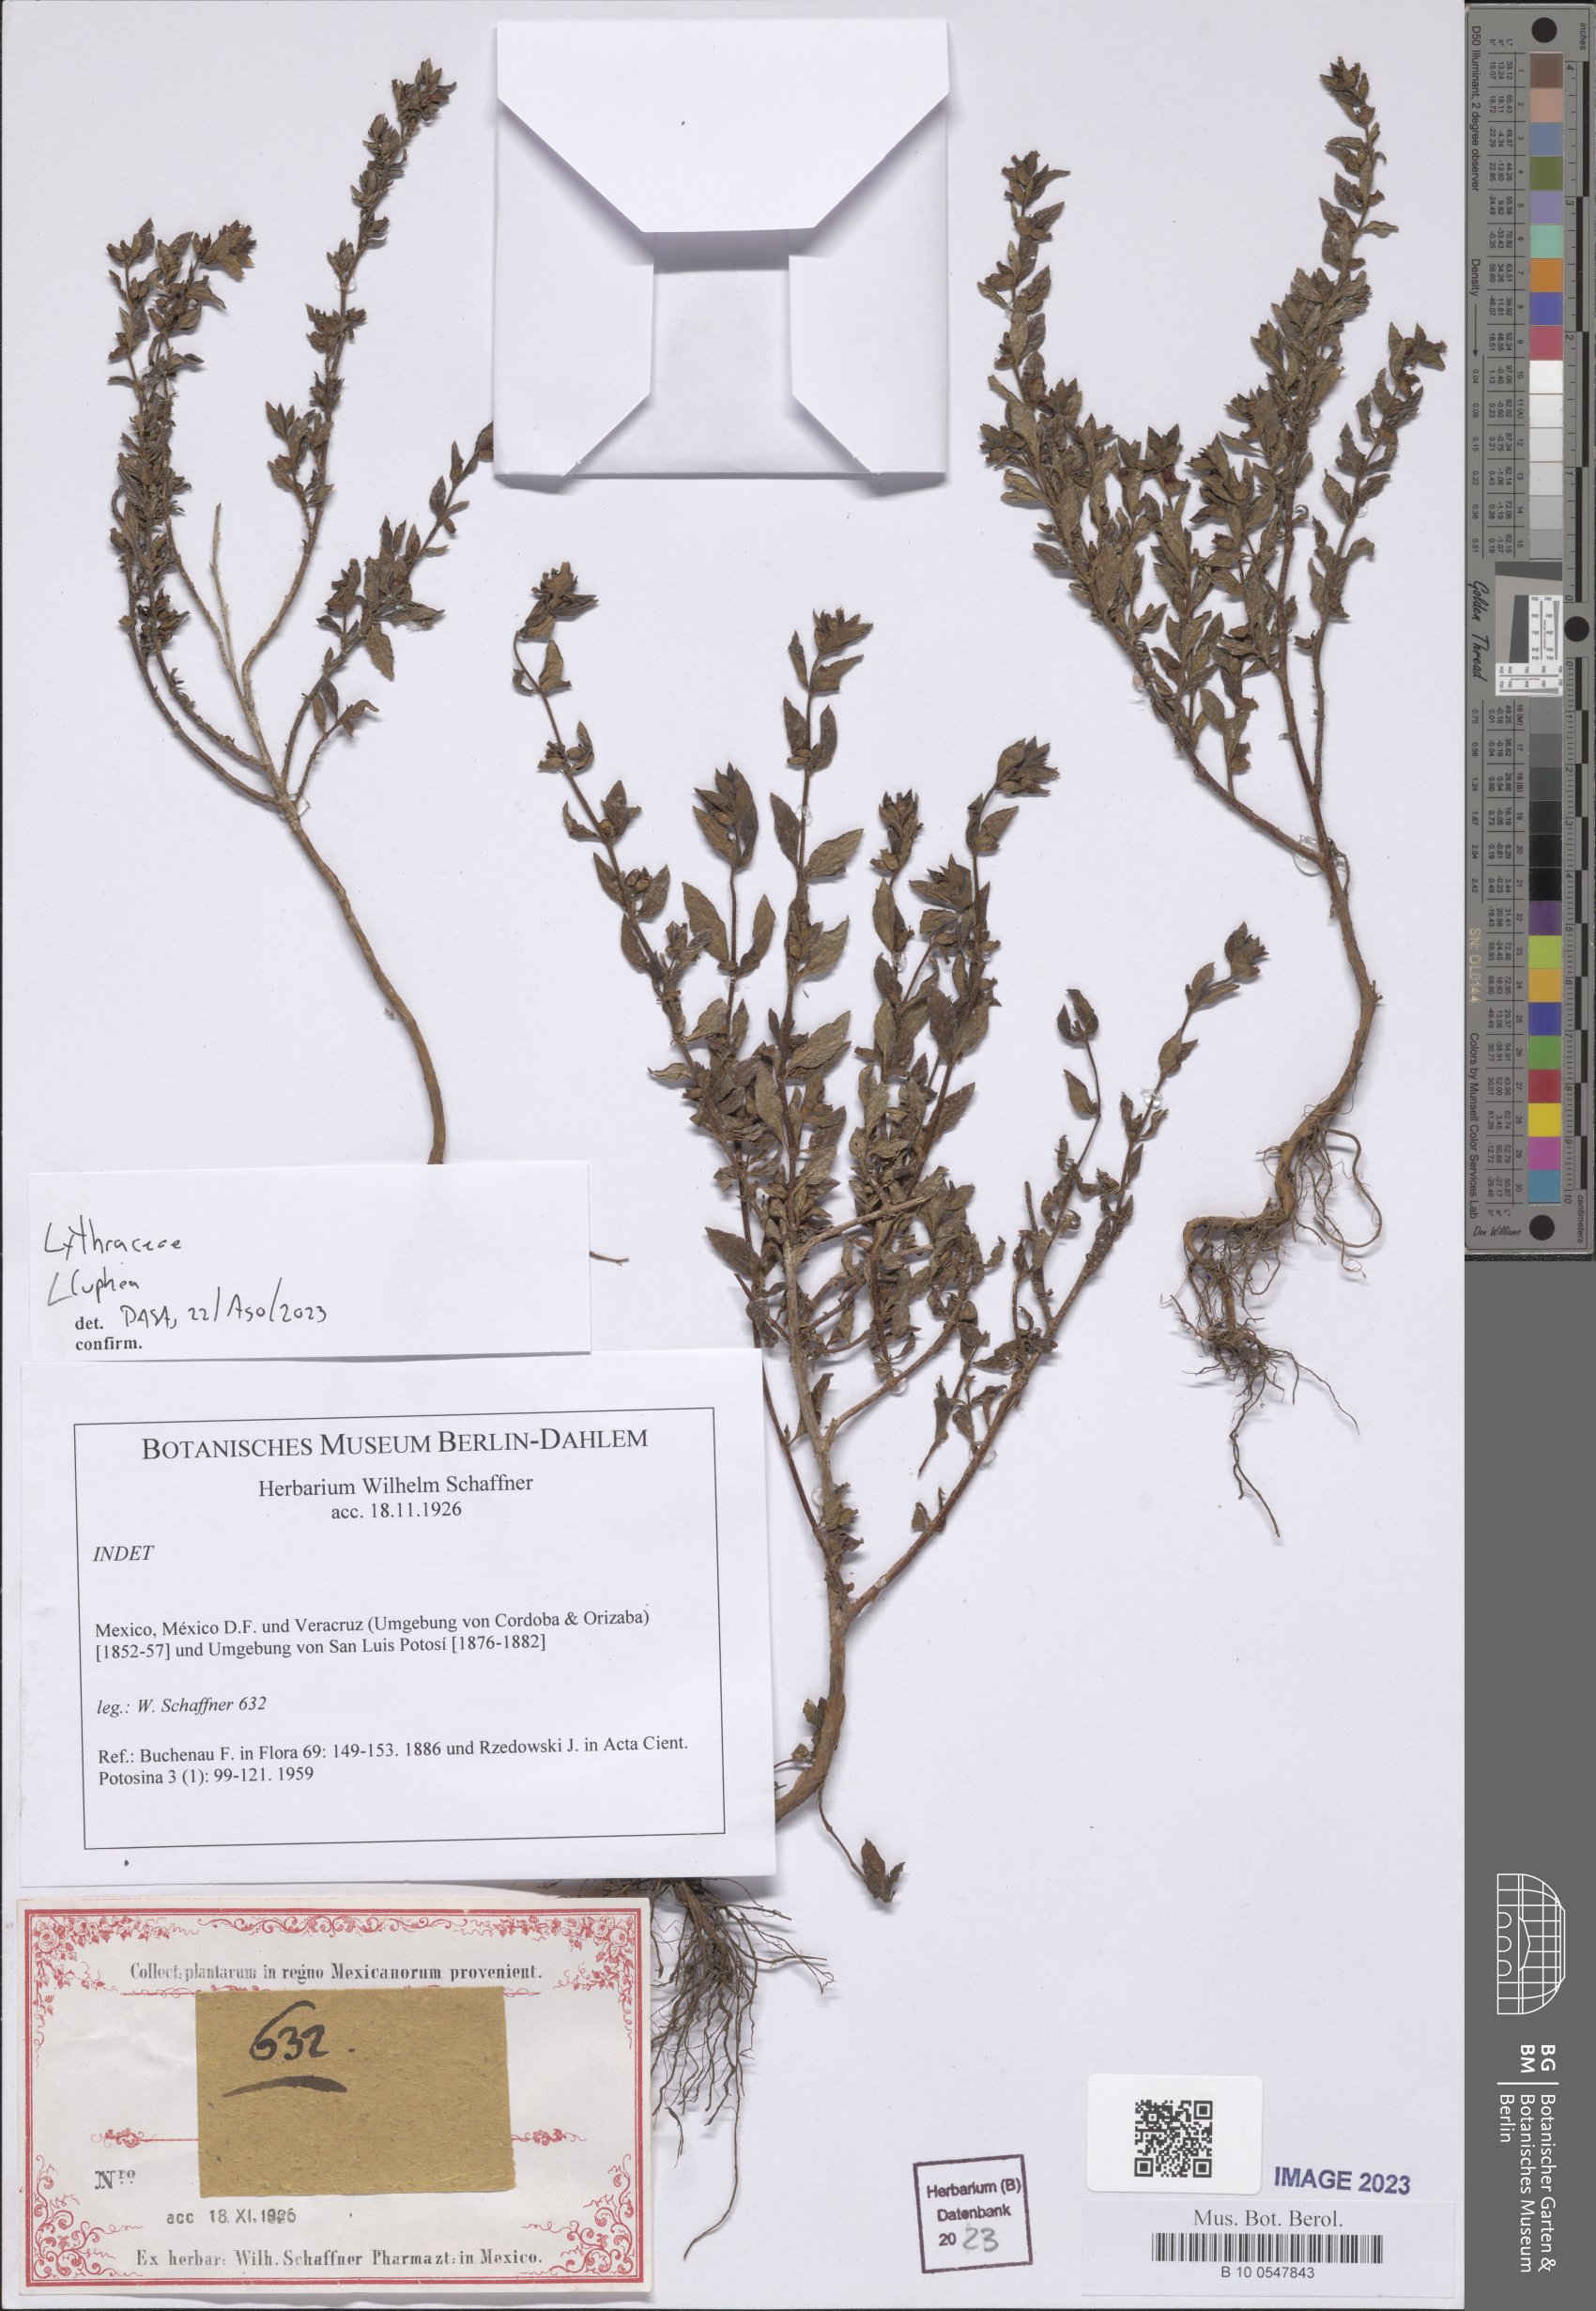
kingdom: Plantae
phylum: Tracheophyta
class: Magnoliopsida
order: Myrtales
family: Lythraceae
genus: Cuphea
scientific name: Cuphea
